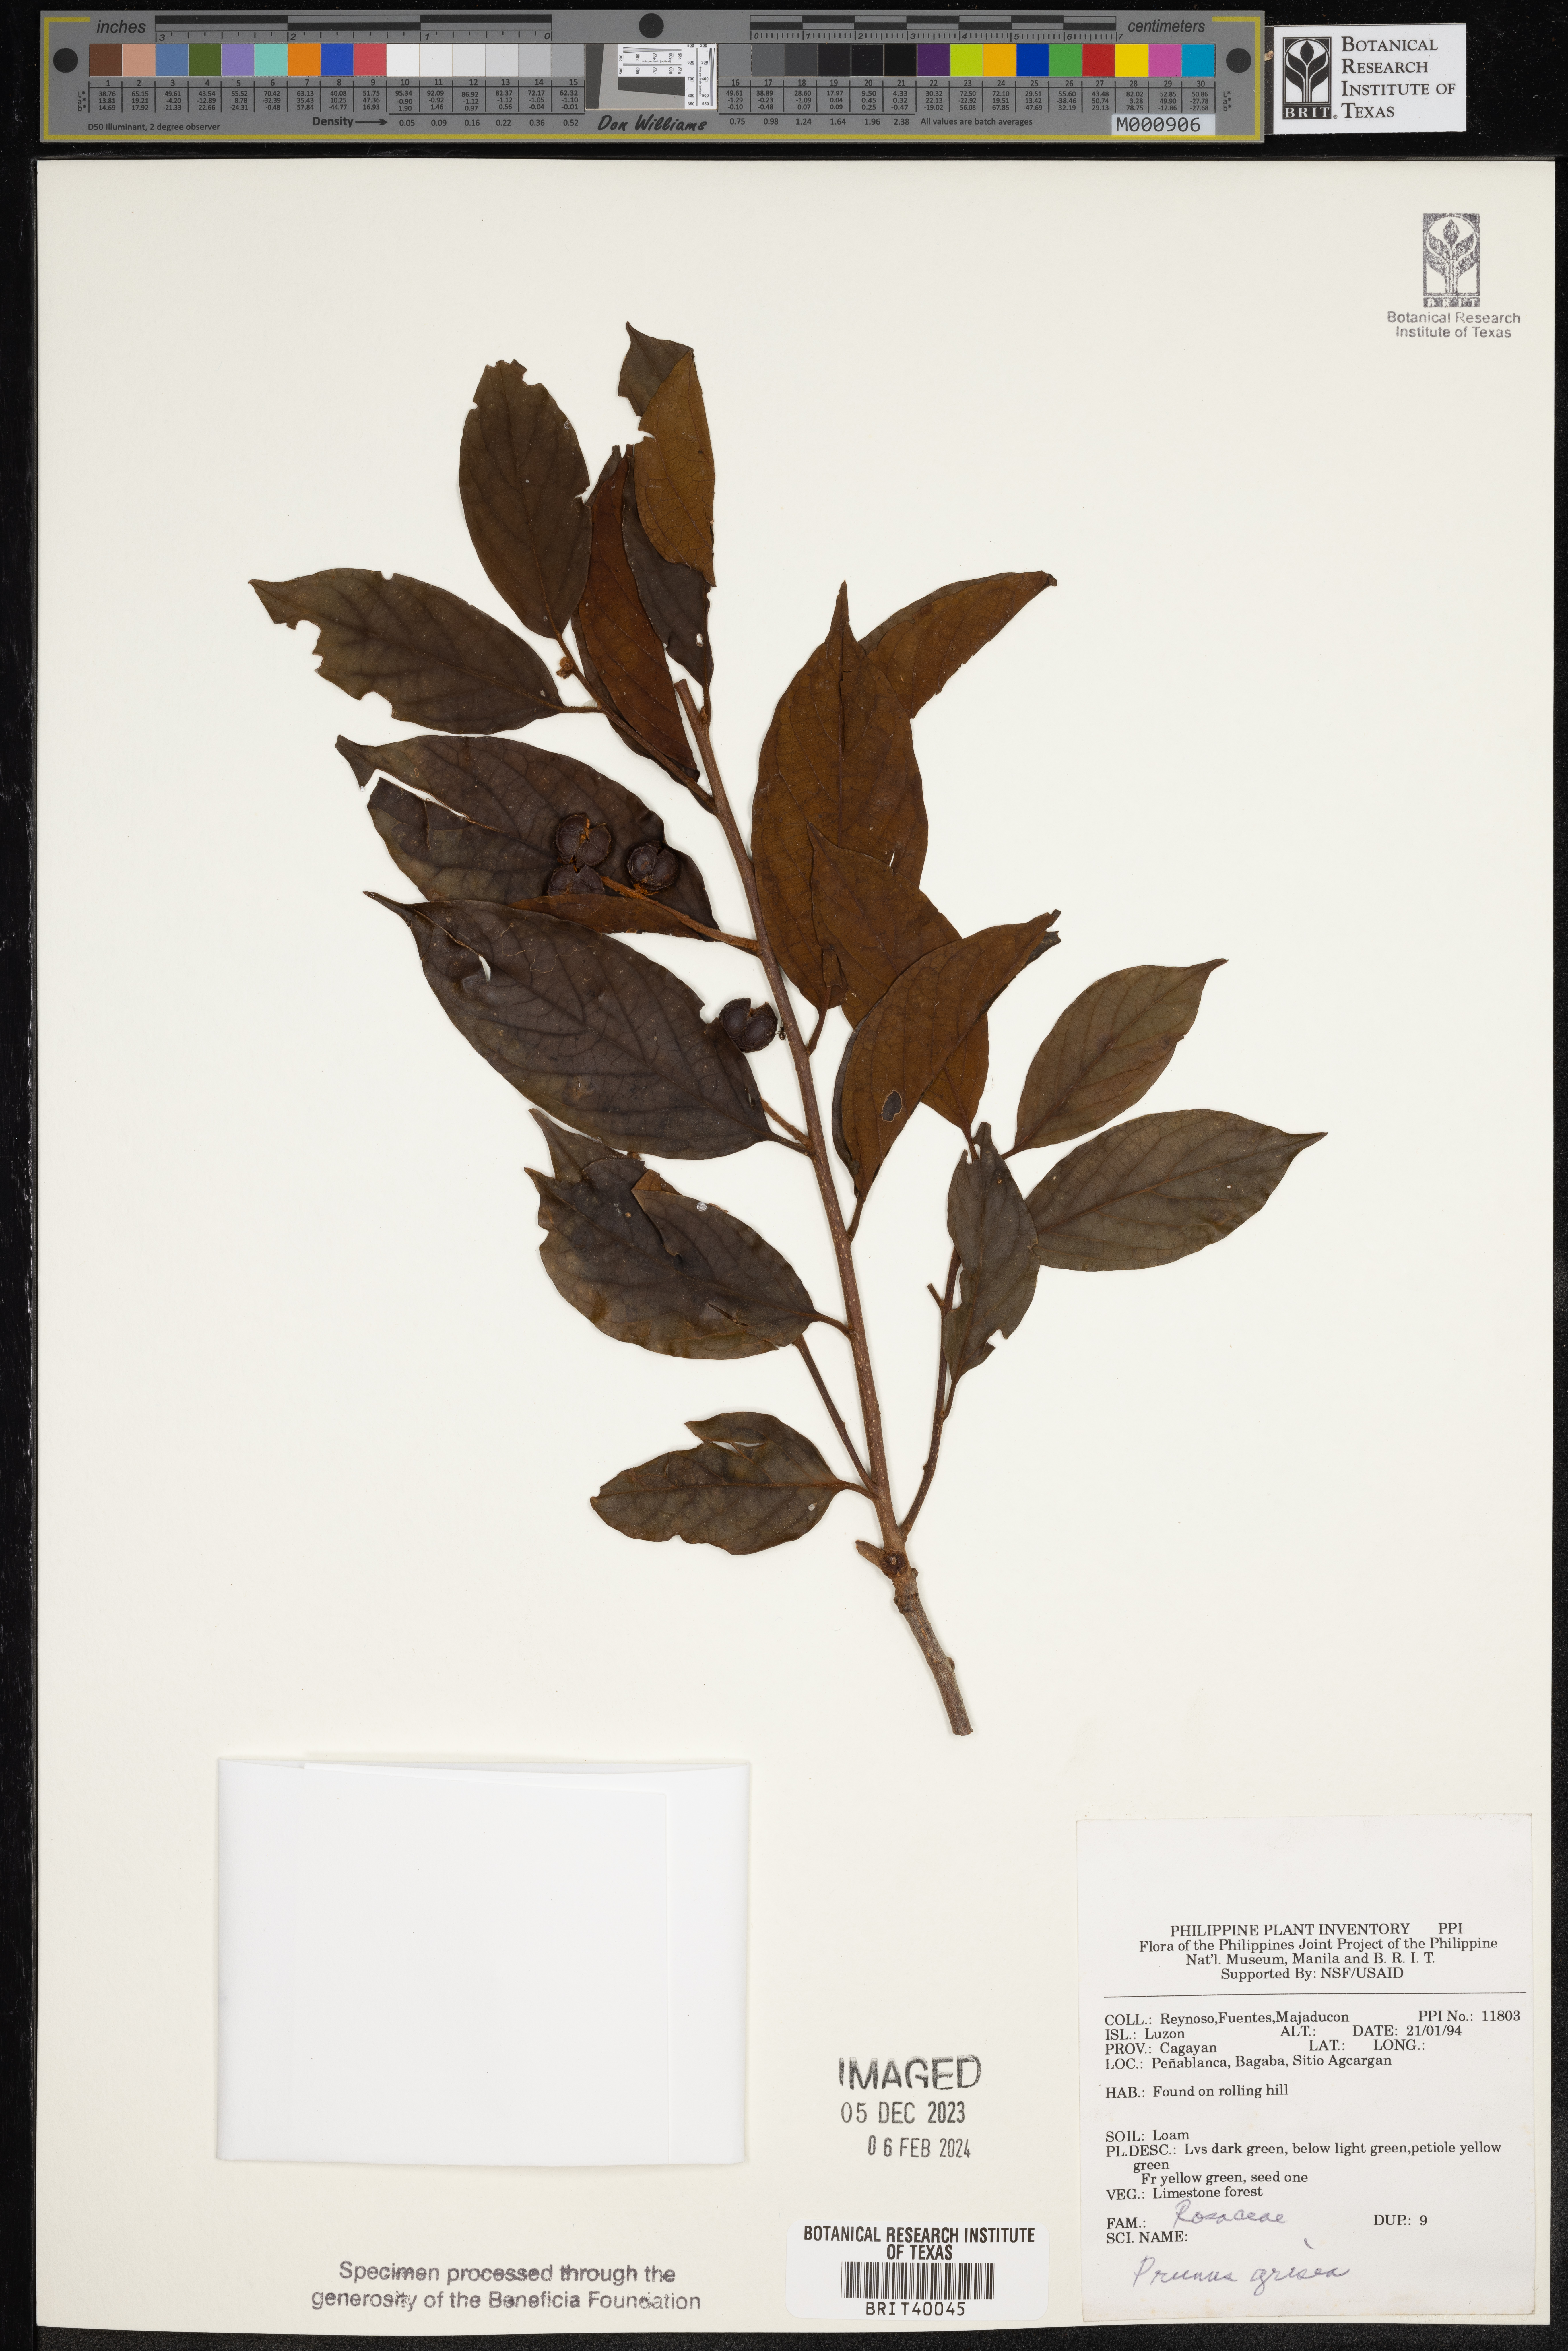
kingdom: Plantae
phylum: Tracheophyta
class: Magnoliopsida
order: Rosales
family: Rosaceae
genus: Prunus
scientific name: Prunus grisea
